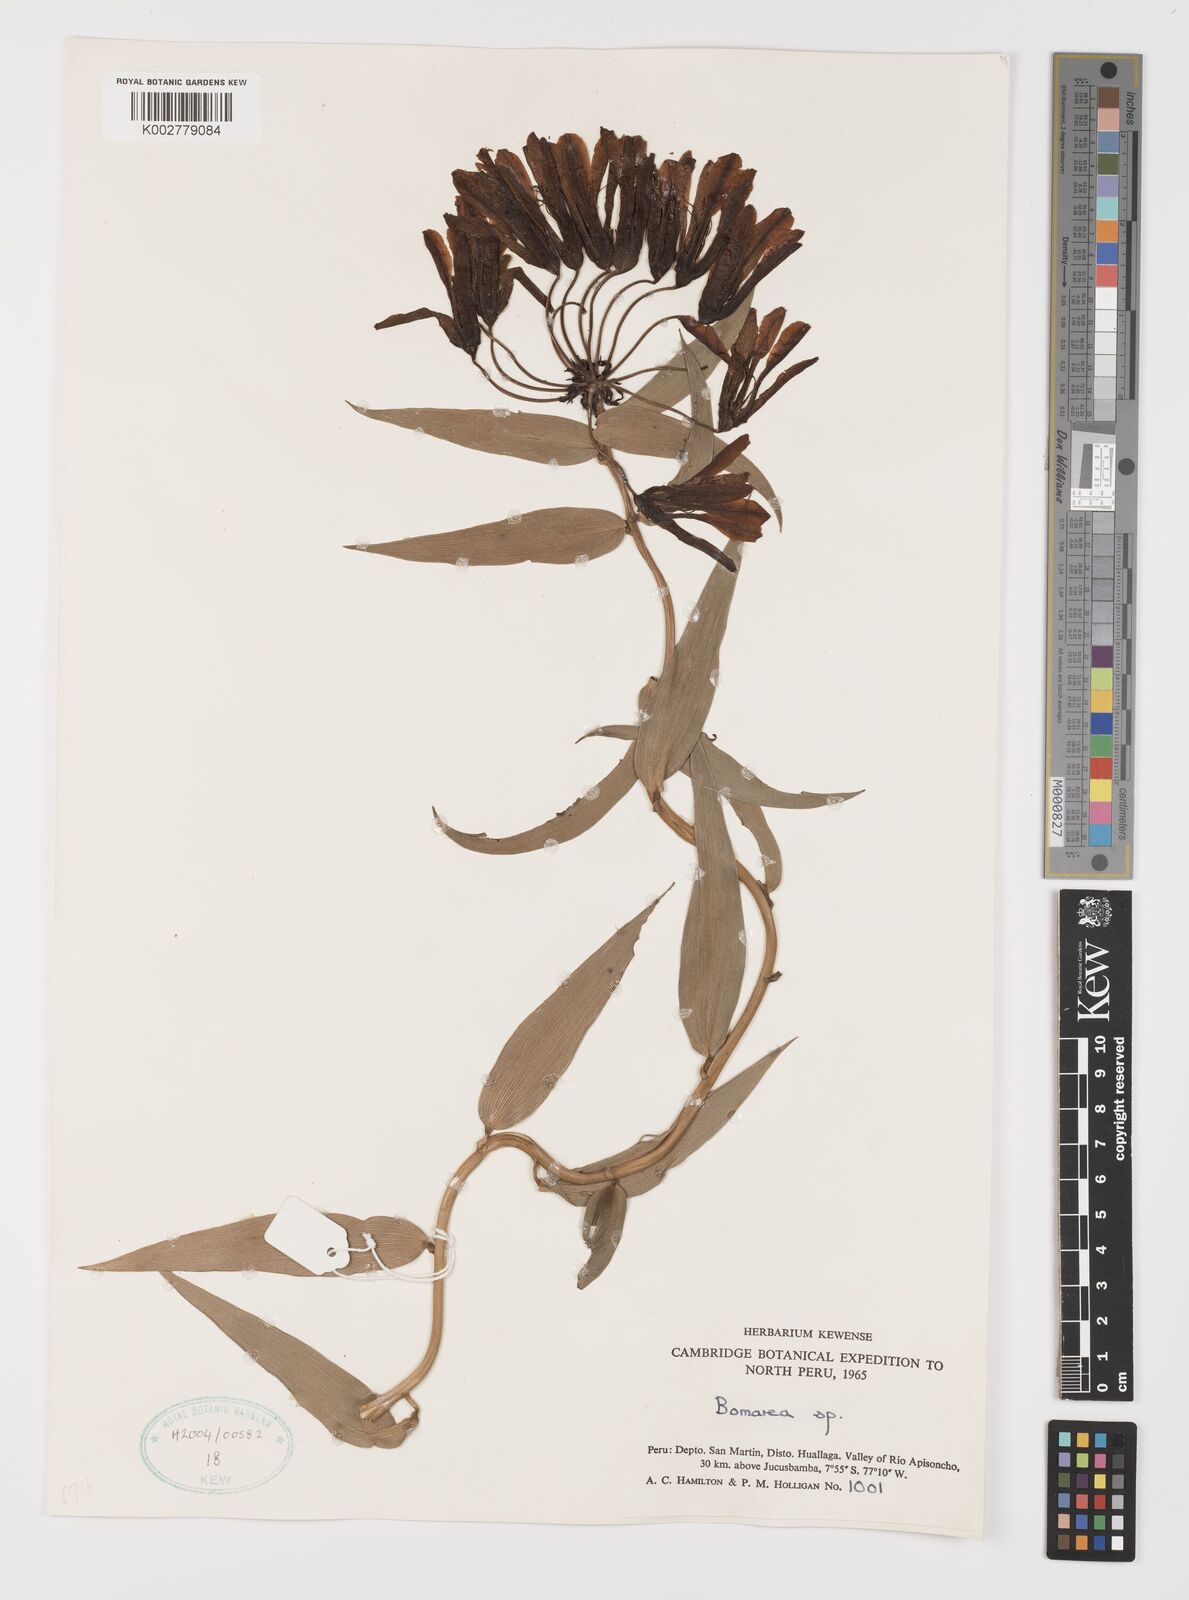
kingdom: Plantae
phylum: Tracheophyta
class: Liliopsida
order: Liliales
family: Alstroemeriaceae
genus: Bomarea
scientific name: Bomarea
